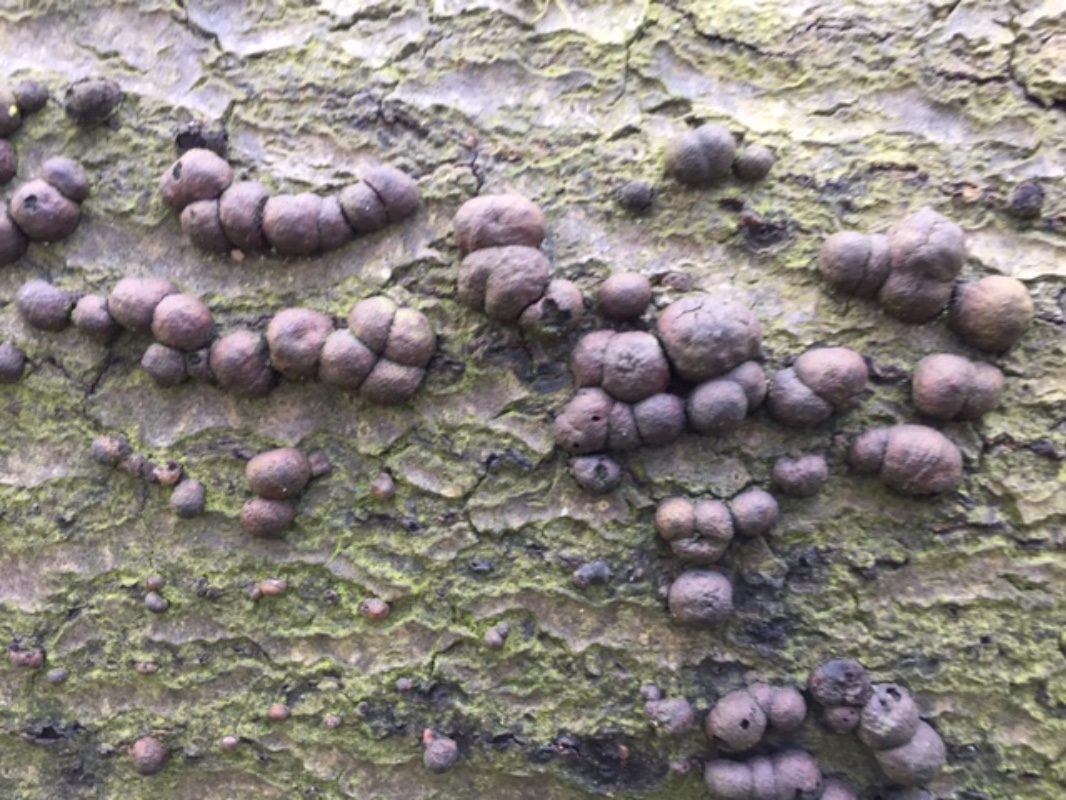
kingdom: Fungi
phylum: Ascomycota
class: Sordariomycetes
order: Xylariales
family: Hypoxylaceae
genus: Hypoxylon
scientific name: Hypoxylon fragiforme
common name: kuljordbær
